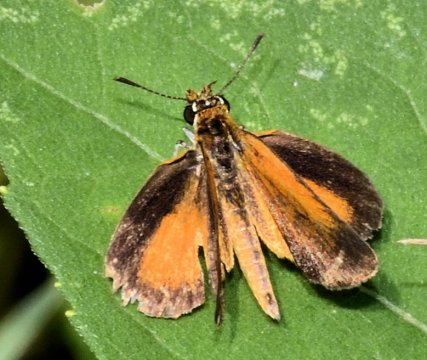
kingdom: Animalia
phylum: Arthropoda
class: Insecta
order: Lepidoptera
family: Hesperiidae
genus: Ancyloxypha
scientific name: Ancyloxypha numitor
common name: Least Skipper
